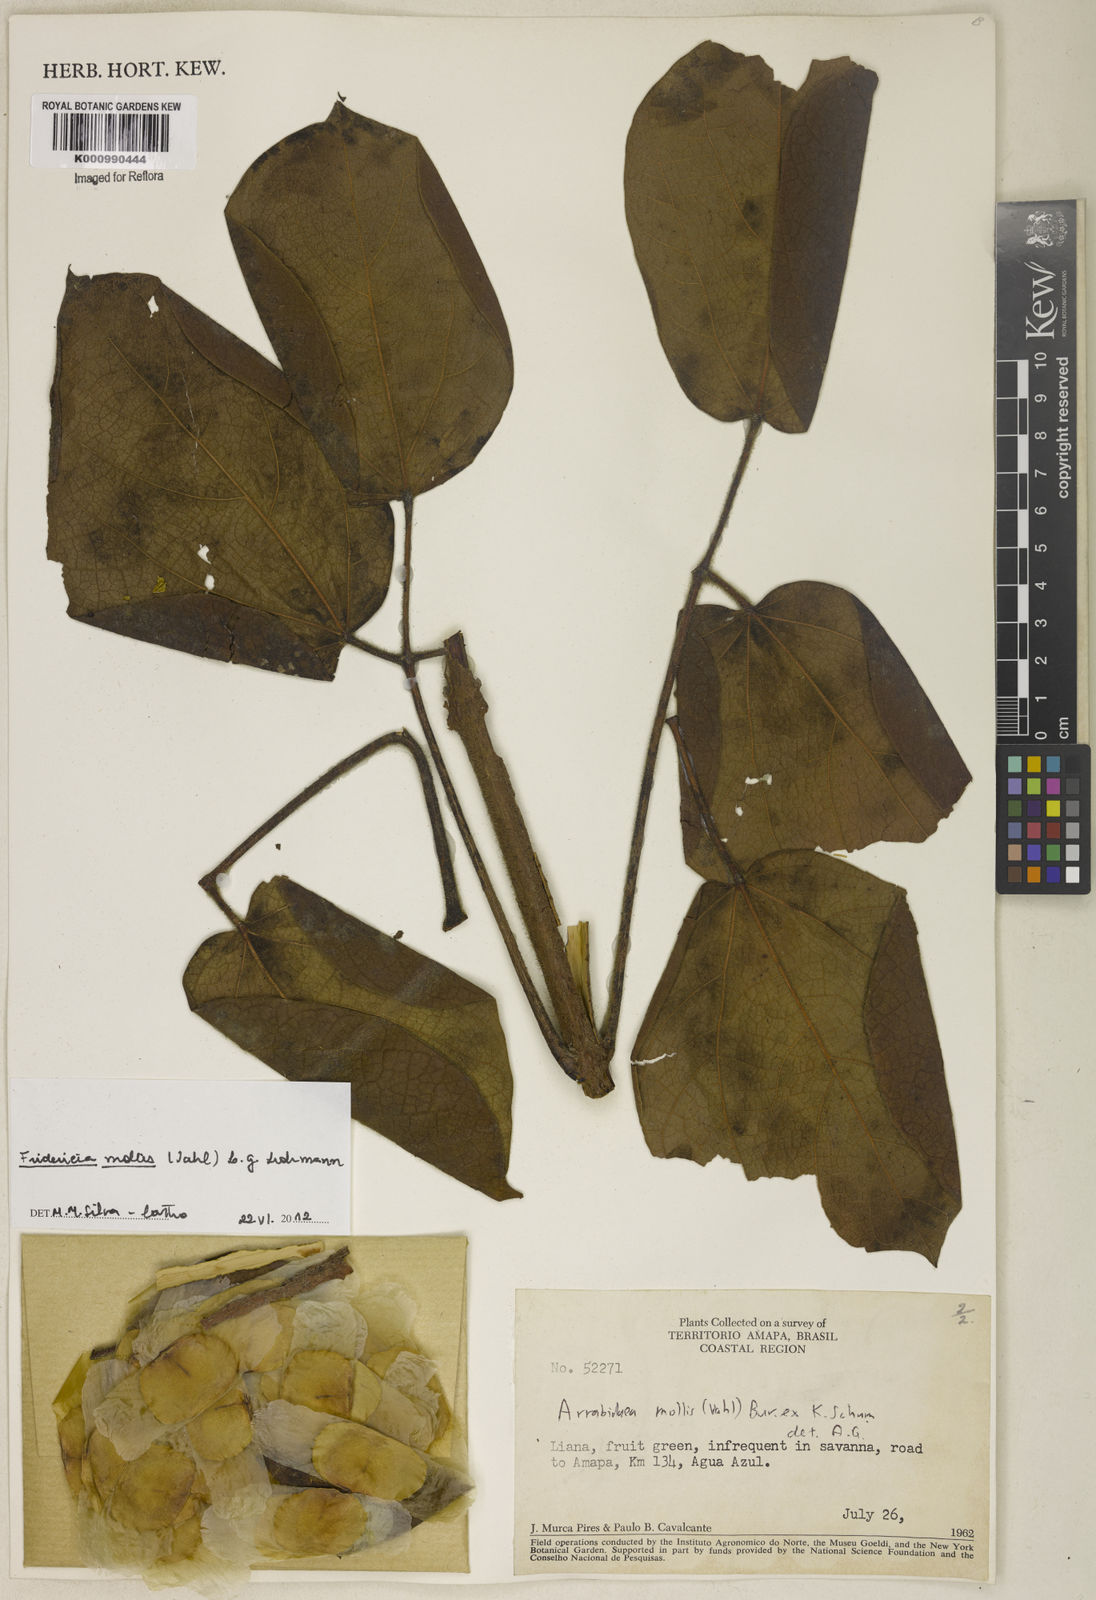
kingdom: Plantae
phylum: Tracheophyta
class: Magnoliopsida
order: Lamiales
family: Bignoniaceae
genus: Fridericia
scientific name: Fridericia mollis
